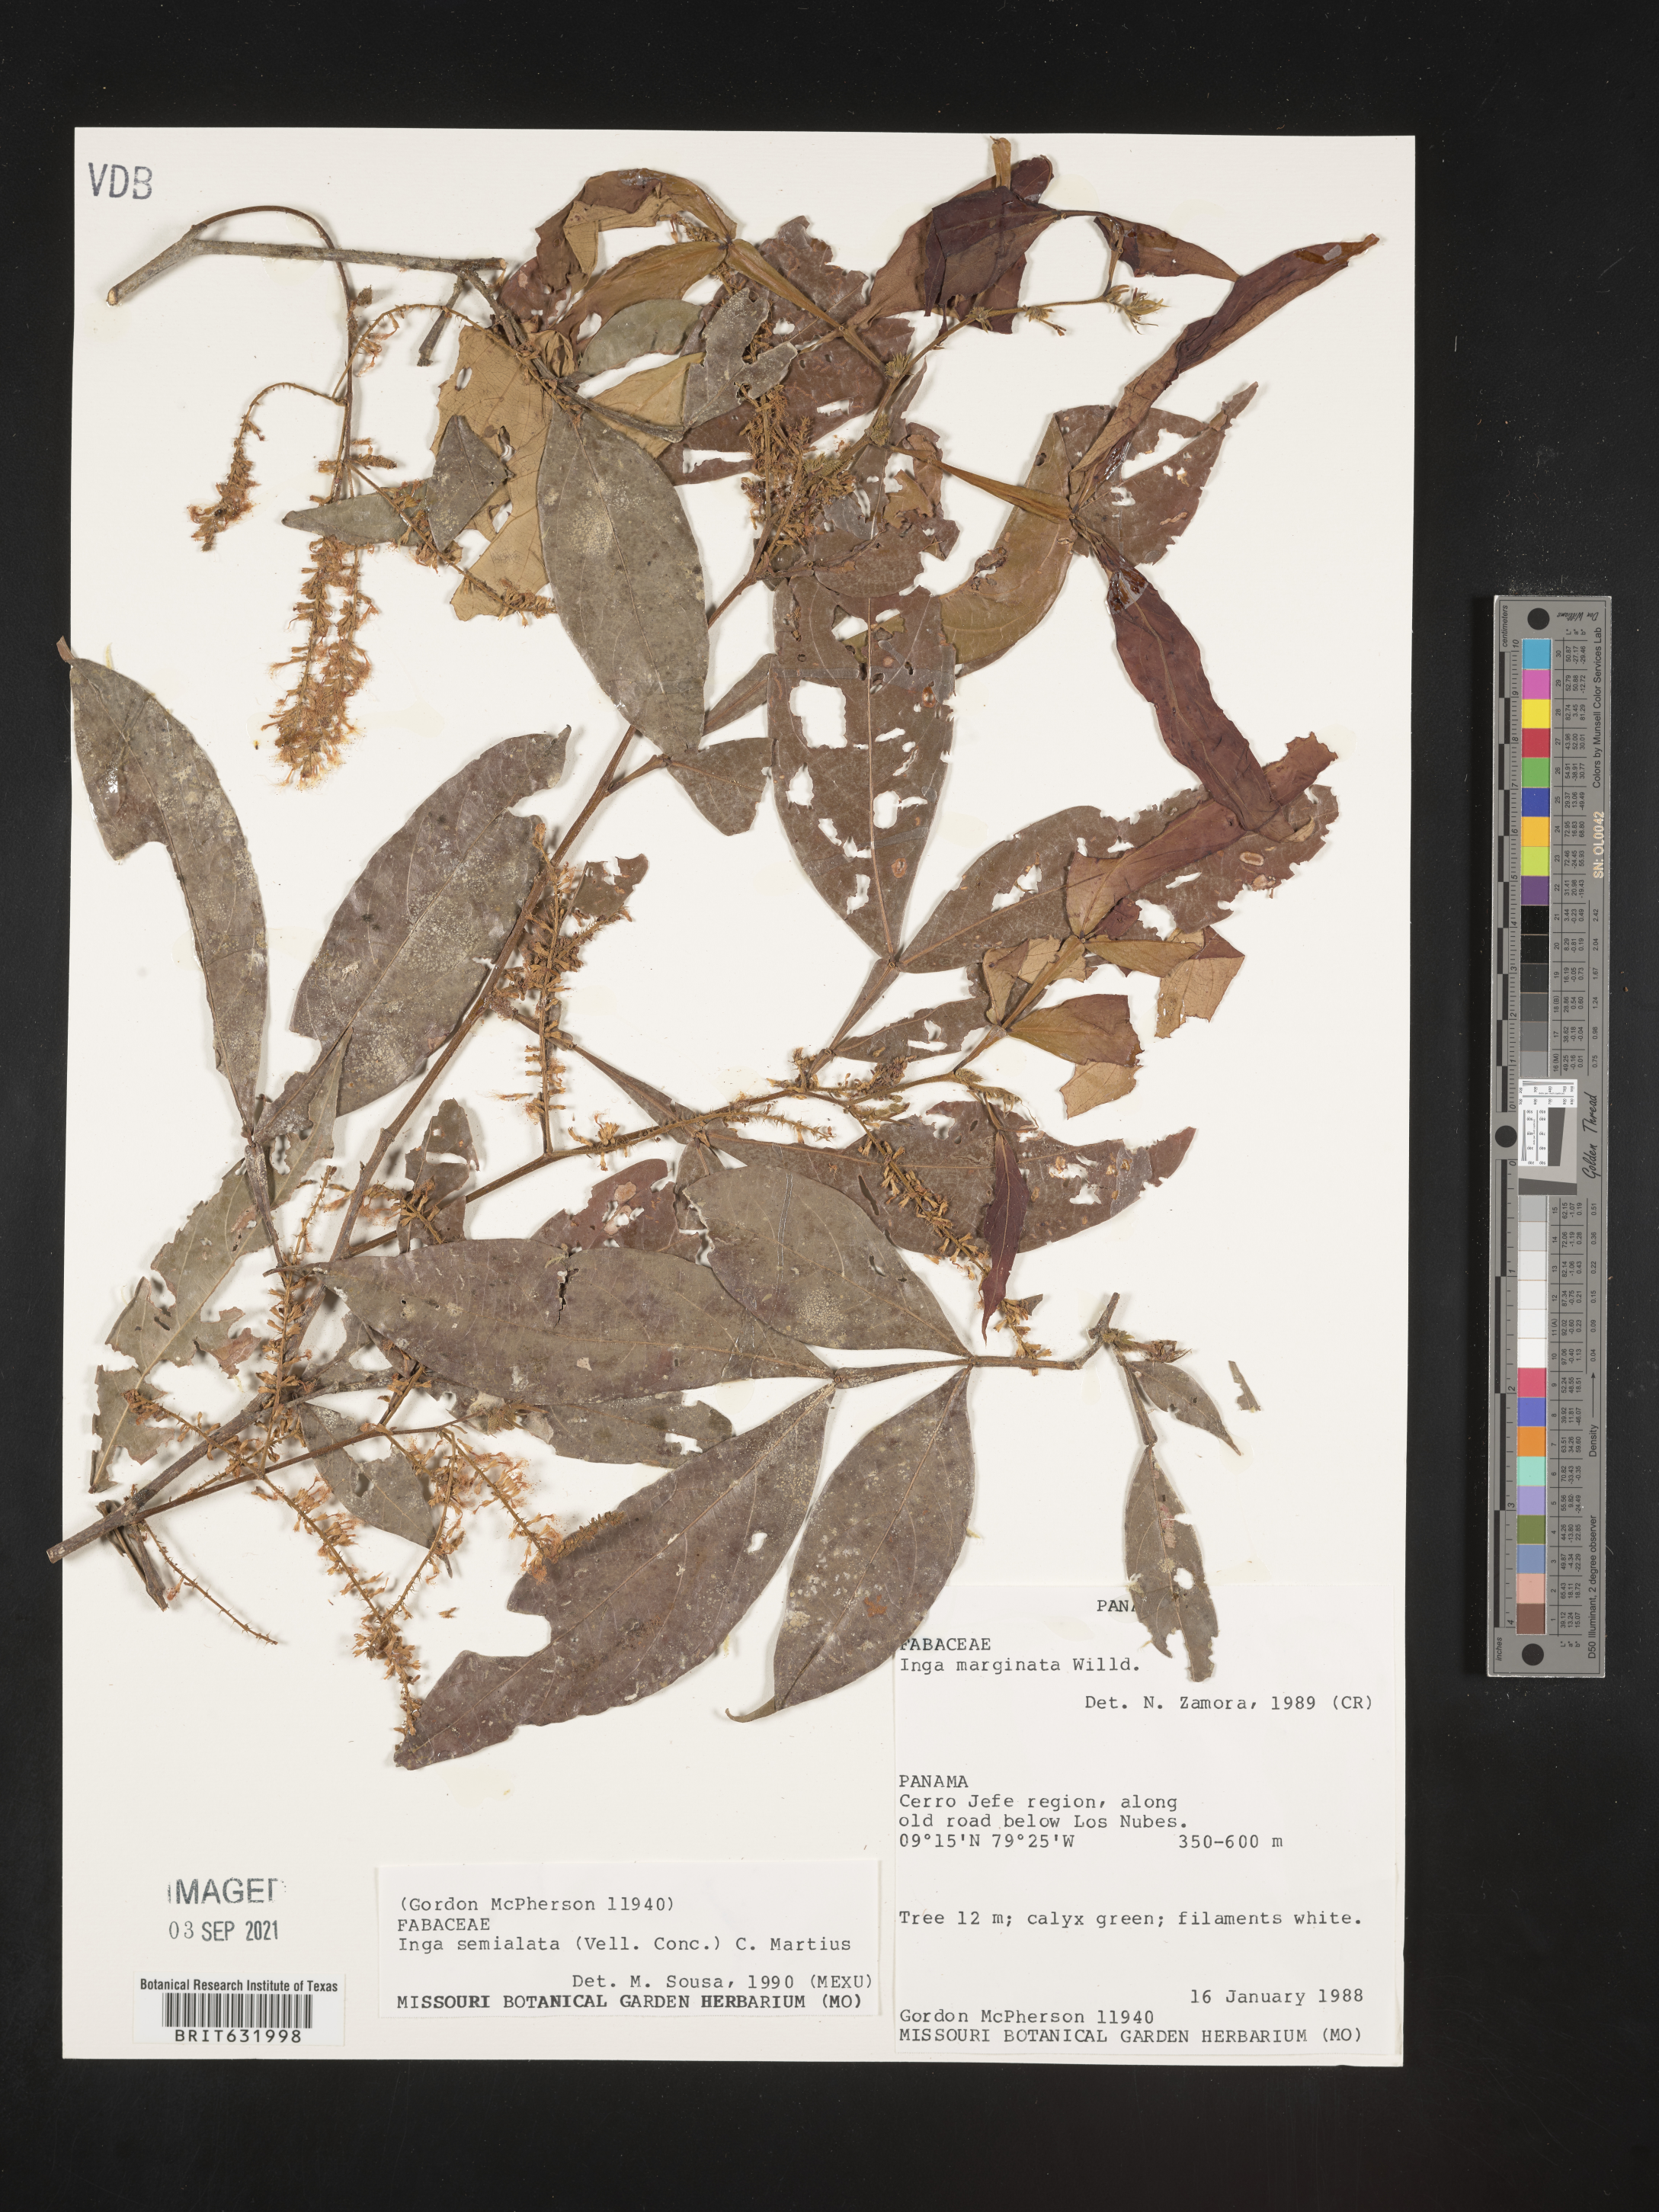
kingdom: Plantae
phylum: Tracheophyta
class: Magnoliopsida
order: Fabales
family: Fabaceae
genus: Inga
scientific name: Inga
